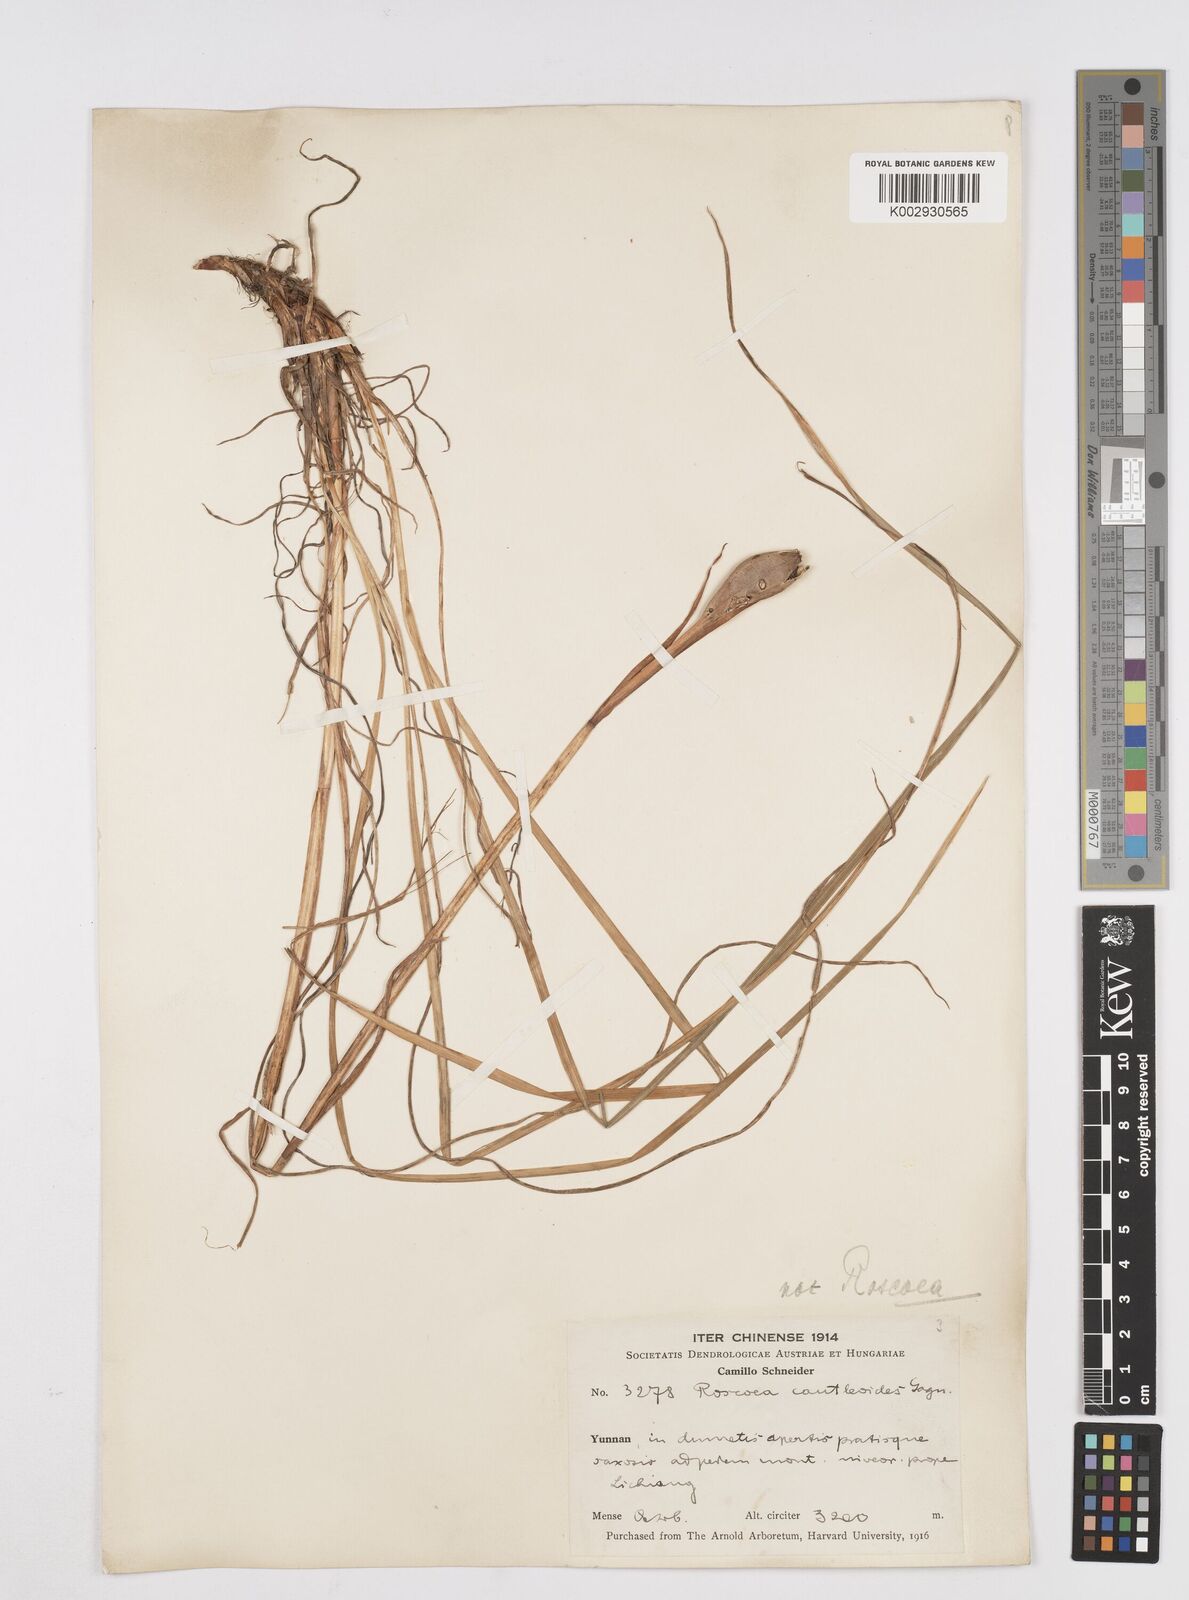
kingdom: Plantae
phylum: Tracheophyta
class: Liliopsida
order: Asparagales
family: Iridaceae
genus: Iris
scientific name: Iris bulleyana
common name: Southwest iris
